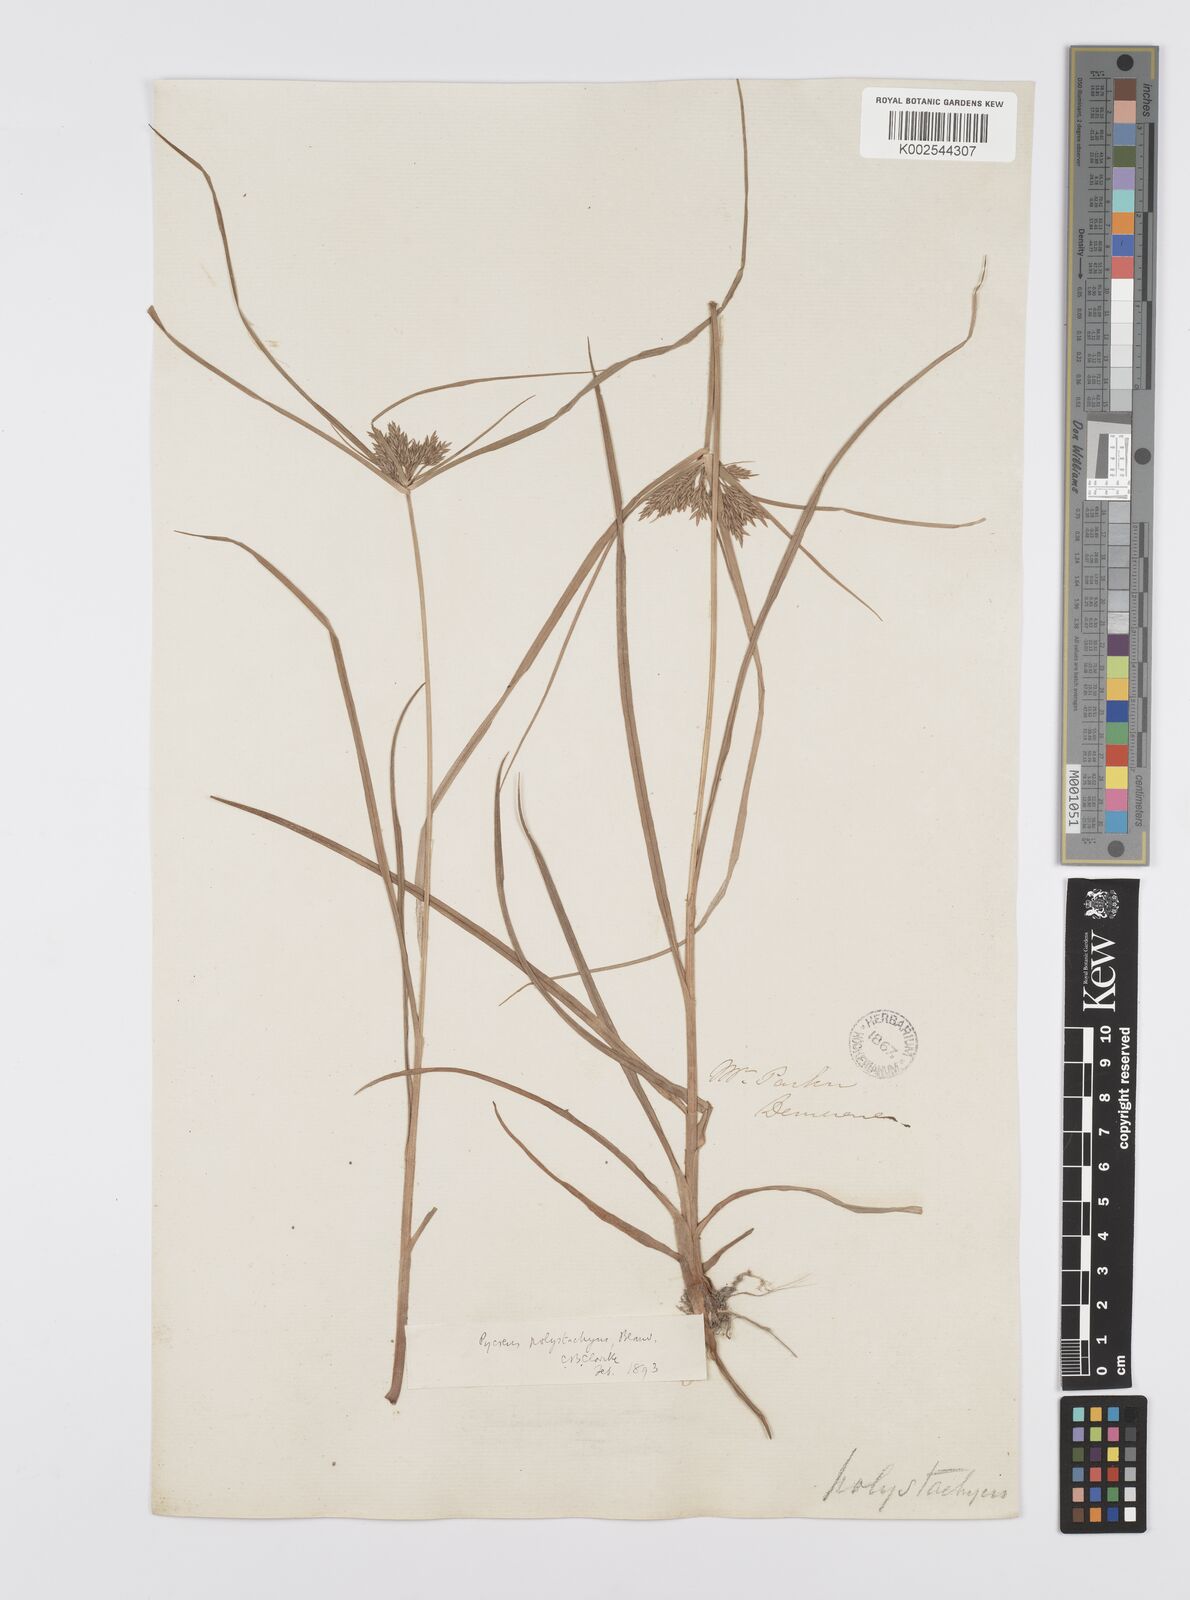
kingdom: Plantae
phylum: Tracheophyta
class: Liliopsida
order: Poales
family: Cyperaceae
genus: Cyperus
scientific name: Cyperus polystachyos
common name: Bunchy flat sedge
